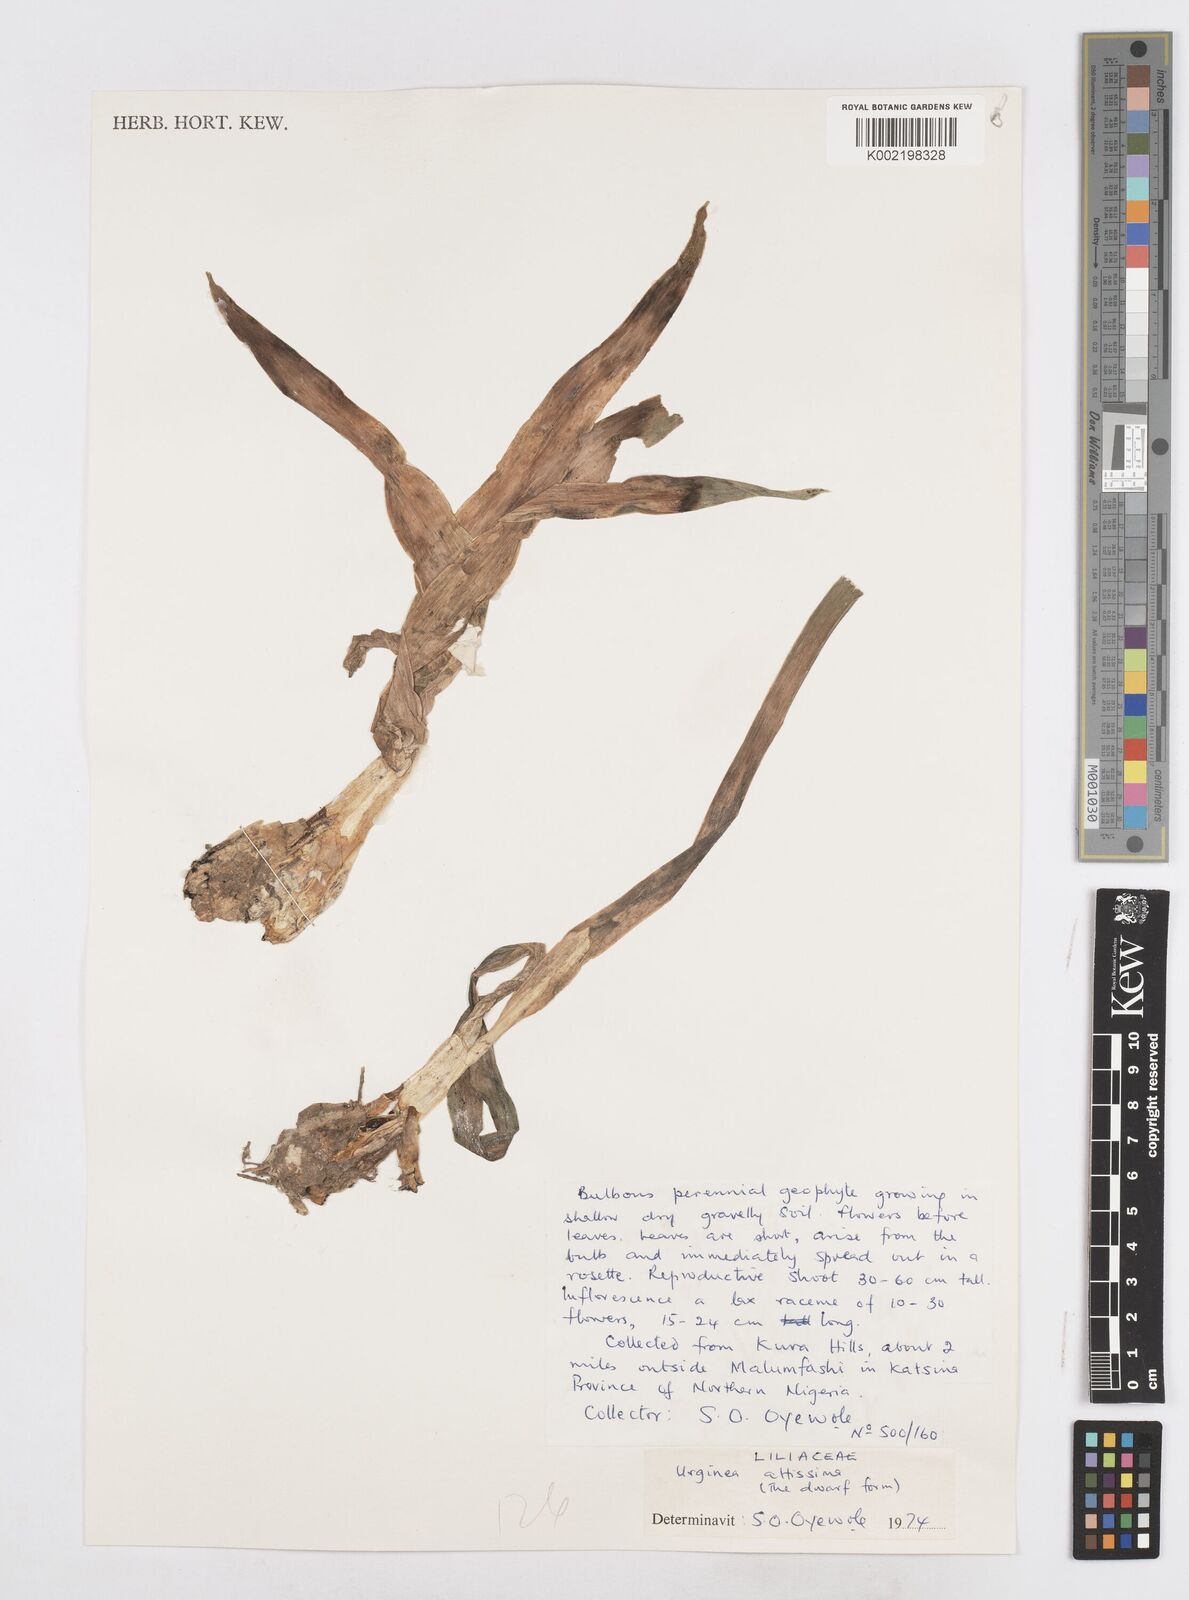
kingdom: Plantae
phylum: Tracheophyta
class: Liliopsida
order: Asparagales
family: Asparagaceae
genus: Drimia
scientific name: Drimia altissima
